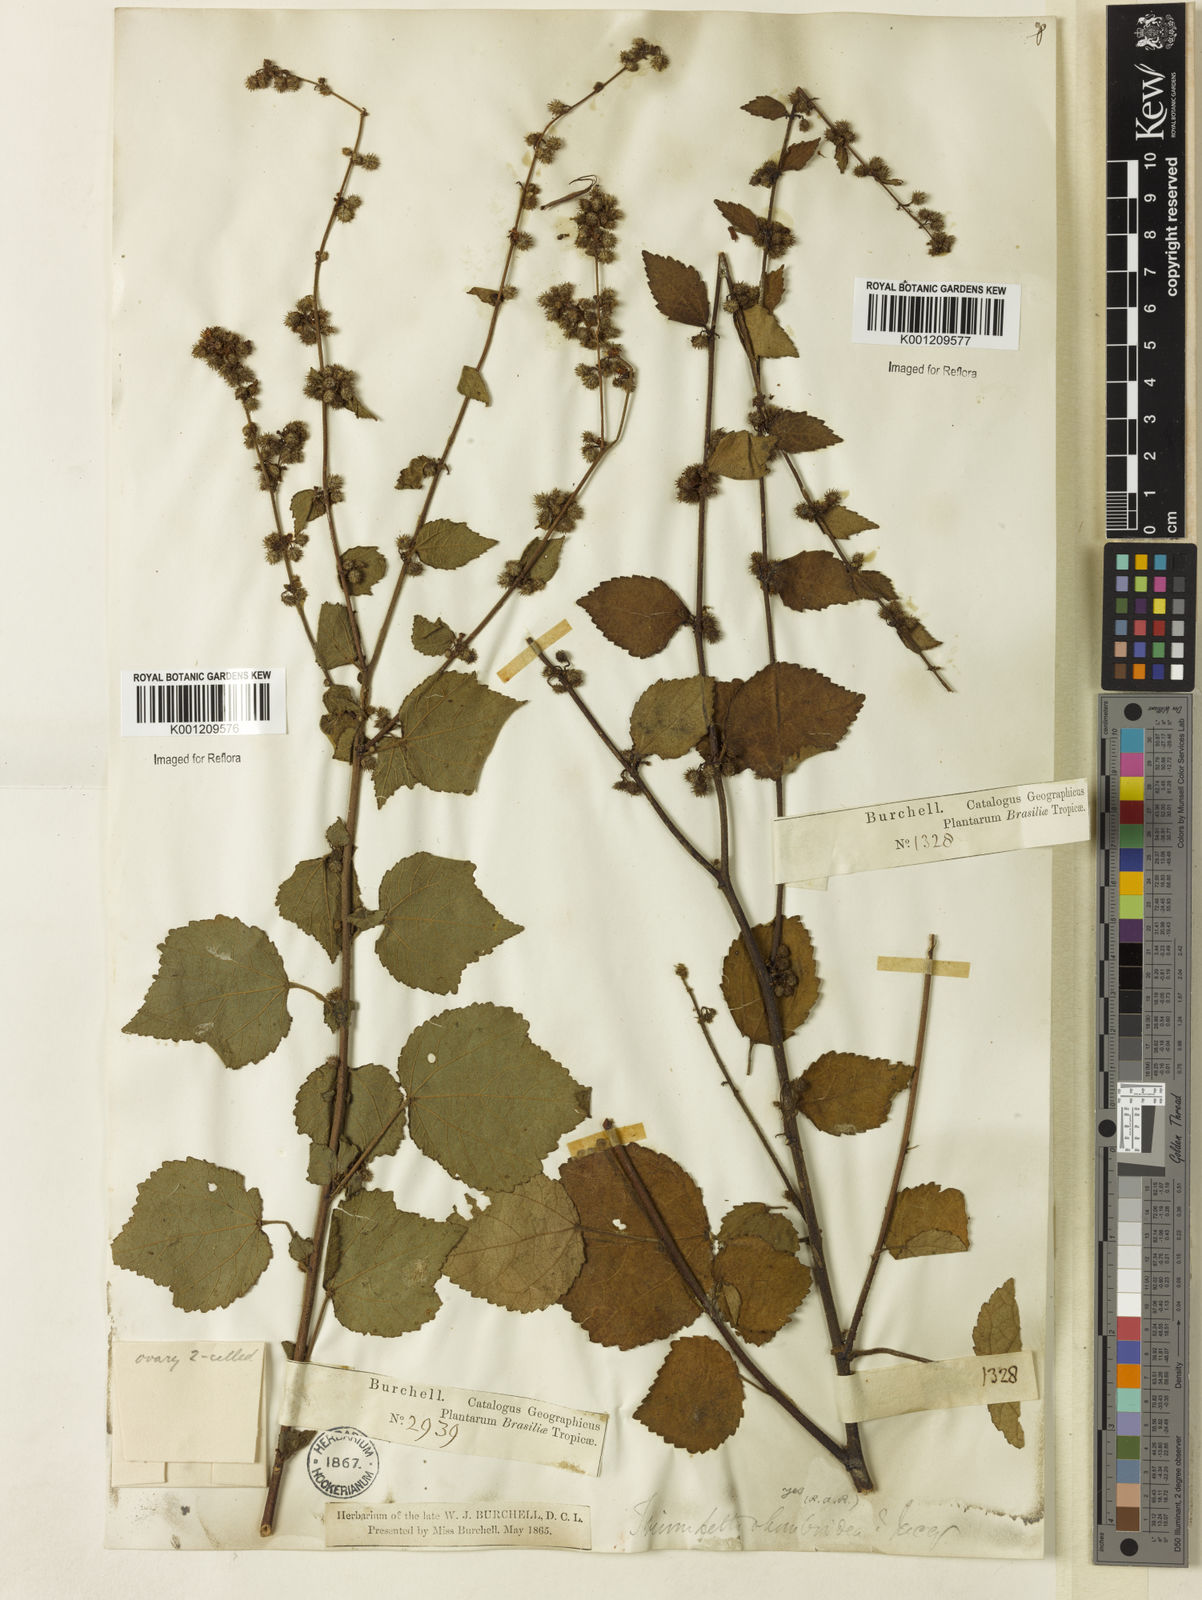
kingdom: Plantae
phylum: Tracheophyta
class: Magnoliopsida
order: Malvales
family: Malvaceae
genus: Triumfetta
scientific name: Triumfetta rhomboidea
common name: Diamond burbark
